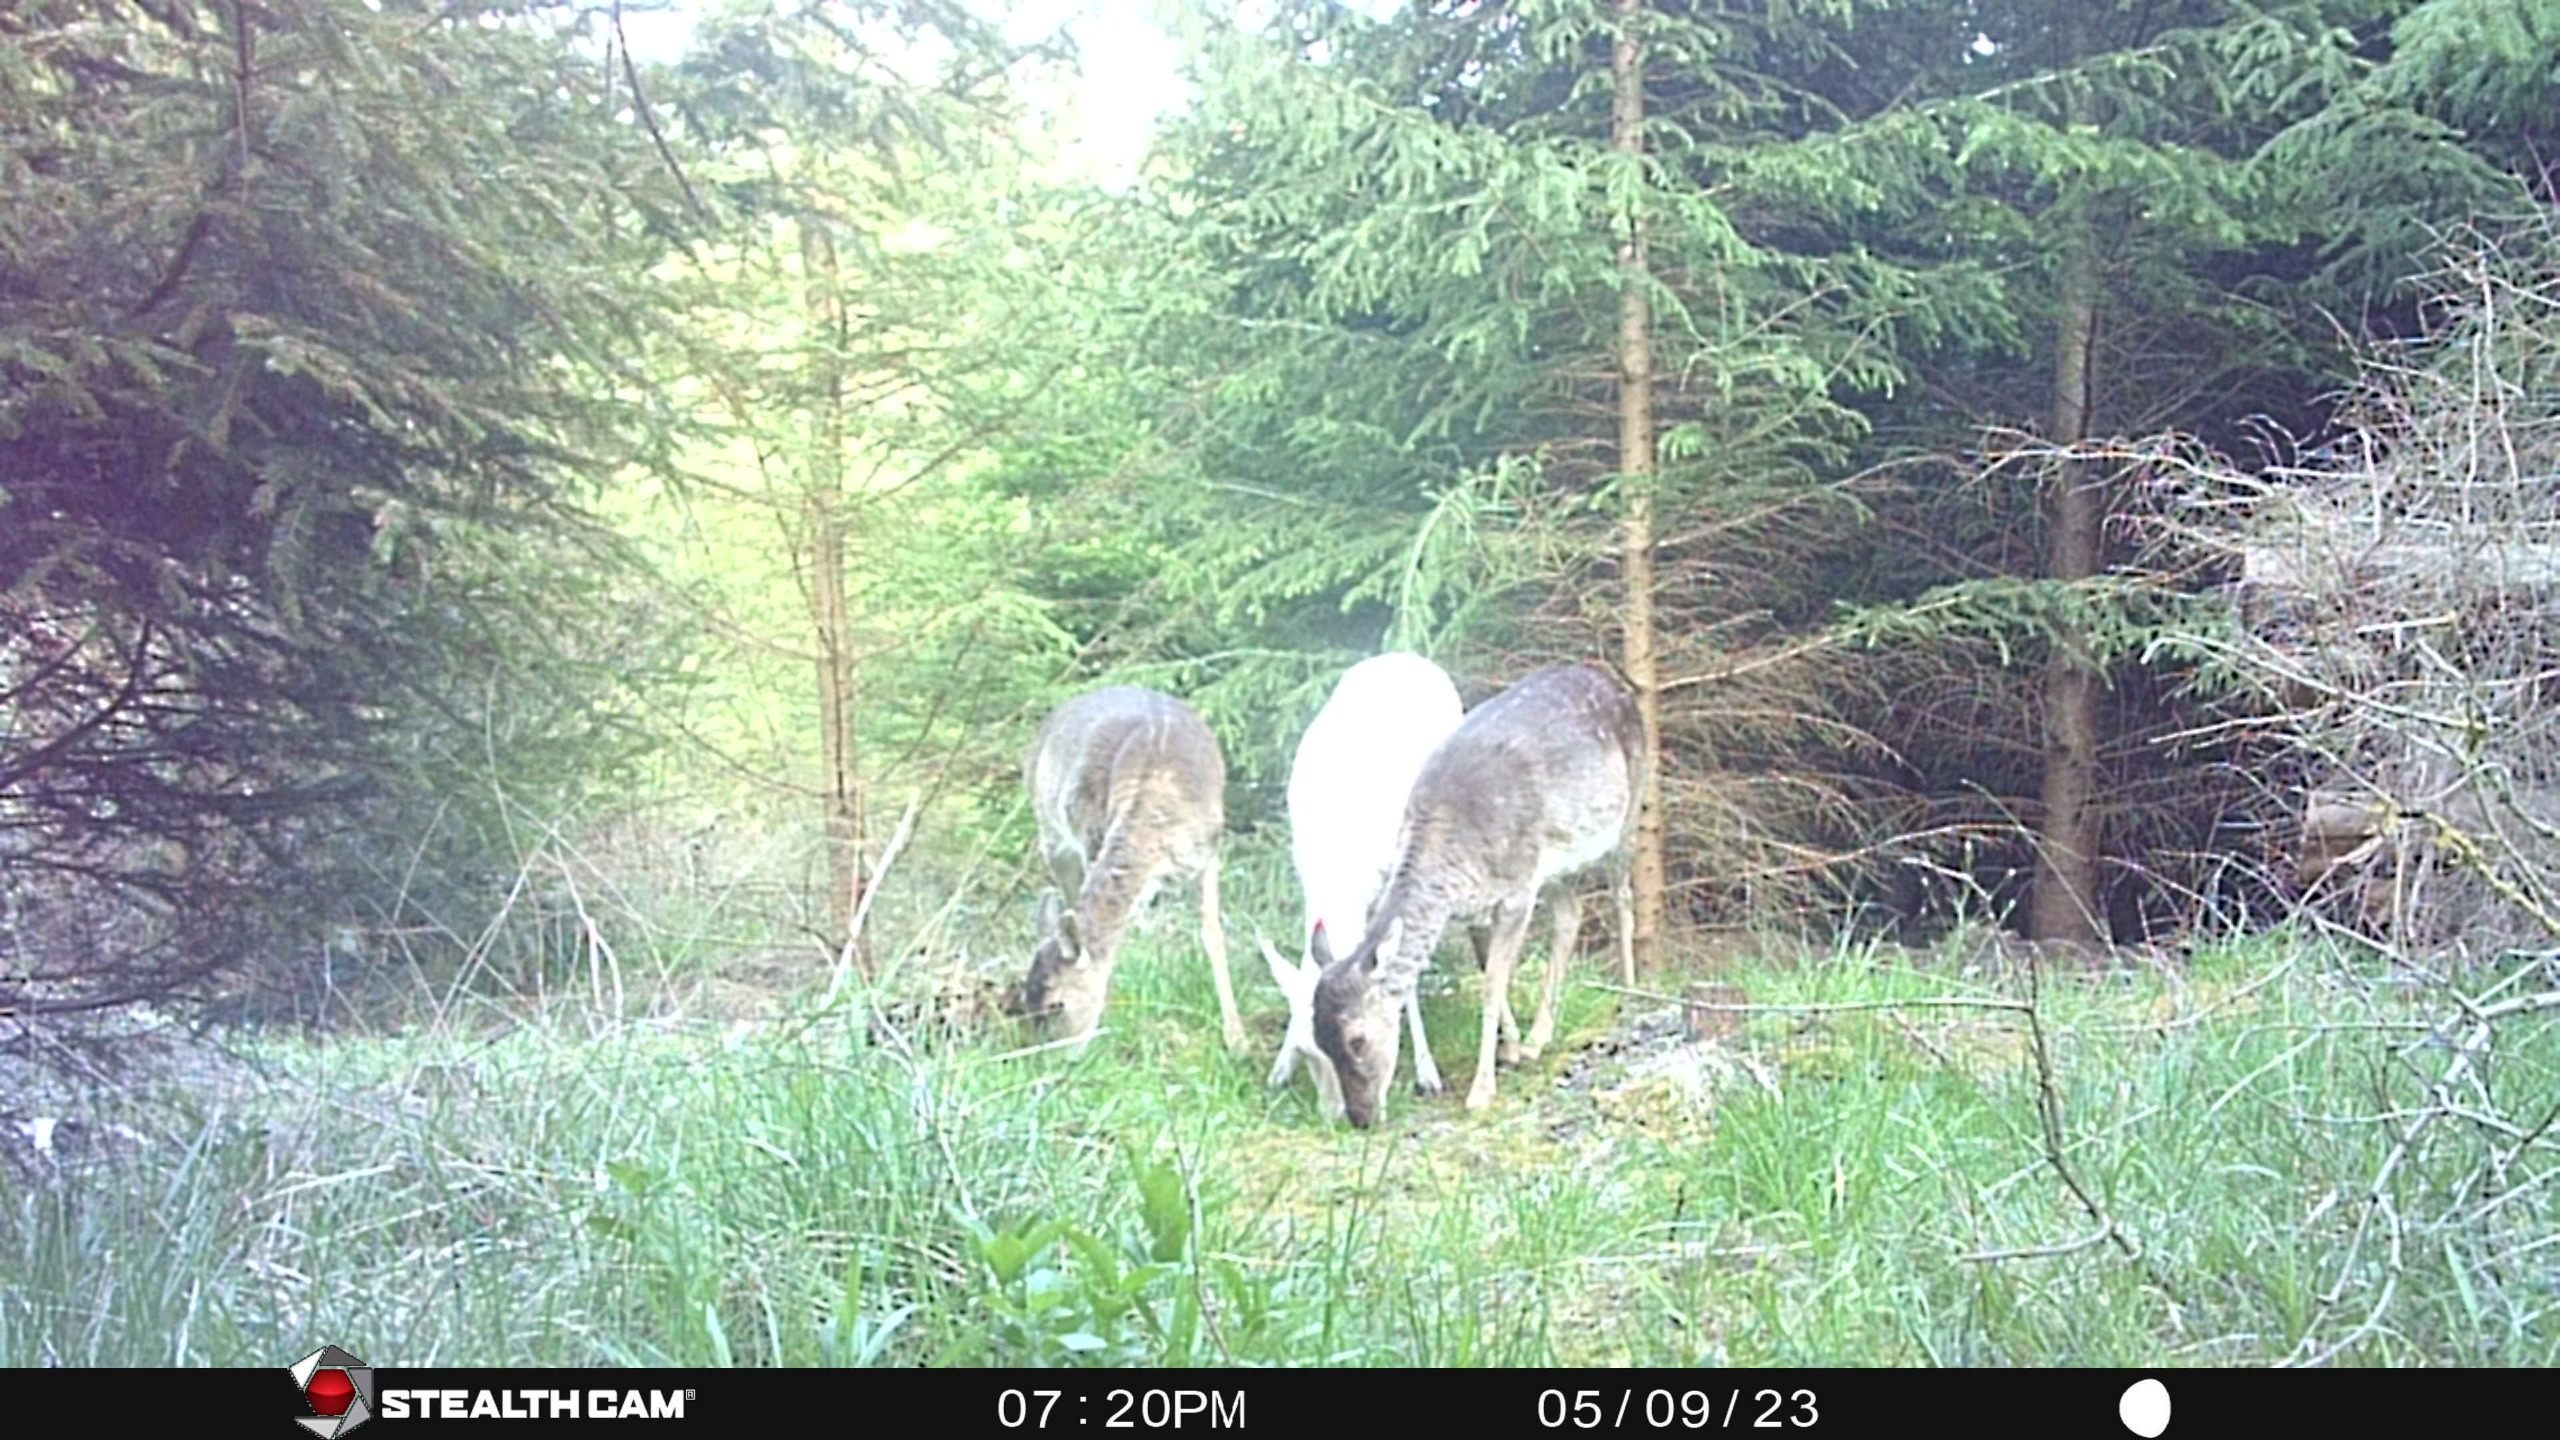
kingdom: Animalia
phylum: Chordata
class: Mammalia
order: Artiodactyla
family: Cervidae
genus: Dama
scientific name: Dama dama
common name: Dådyr
